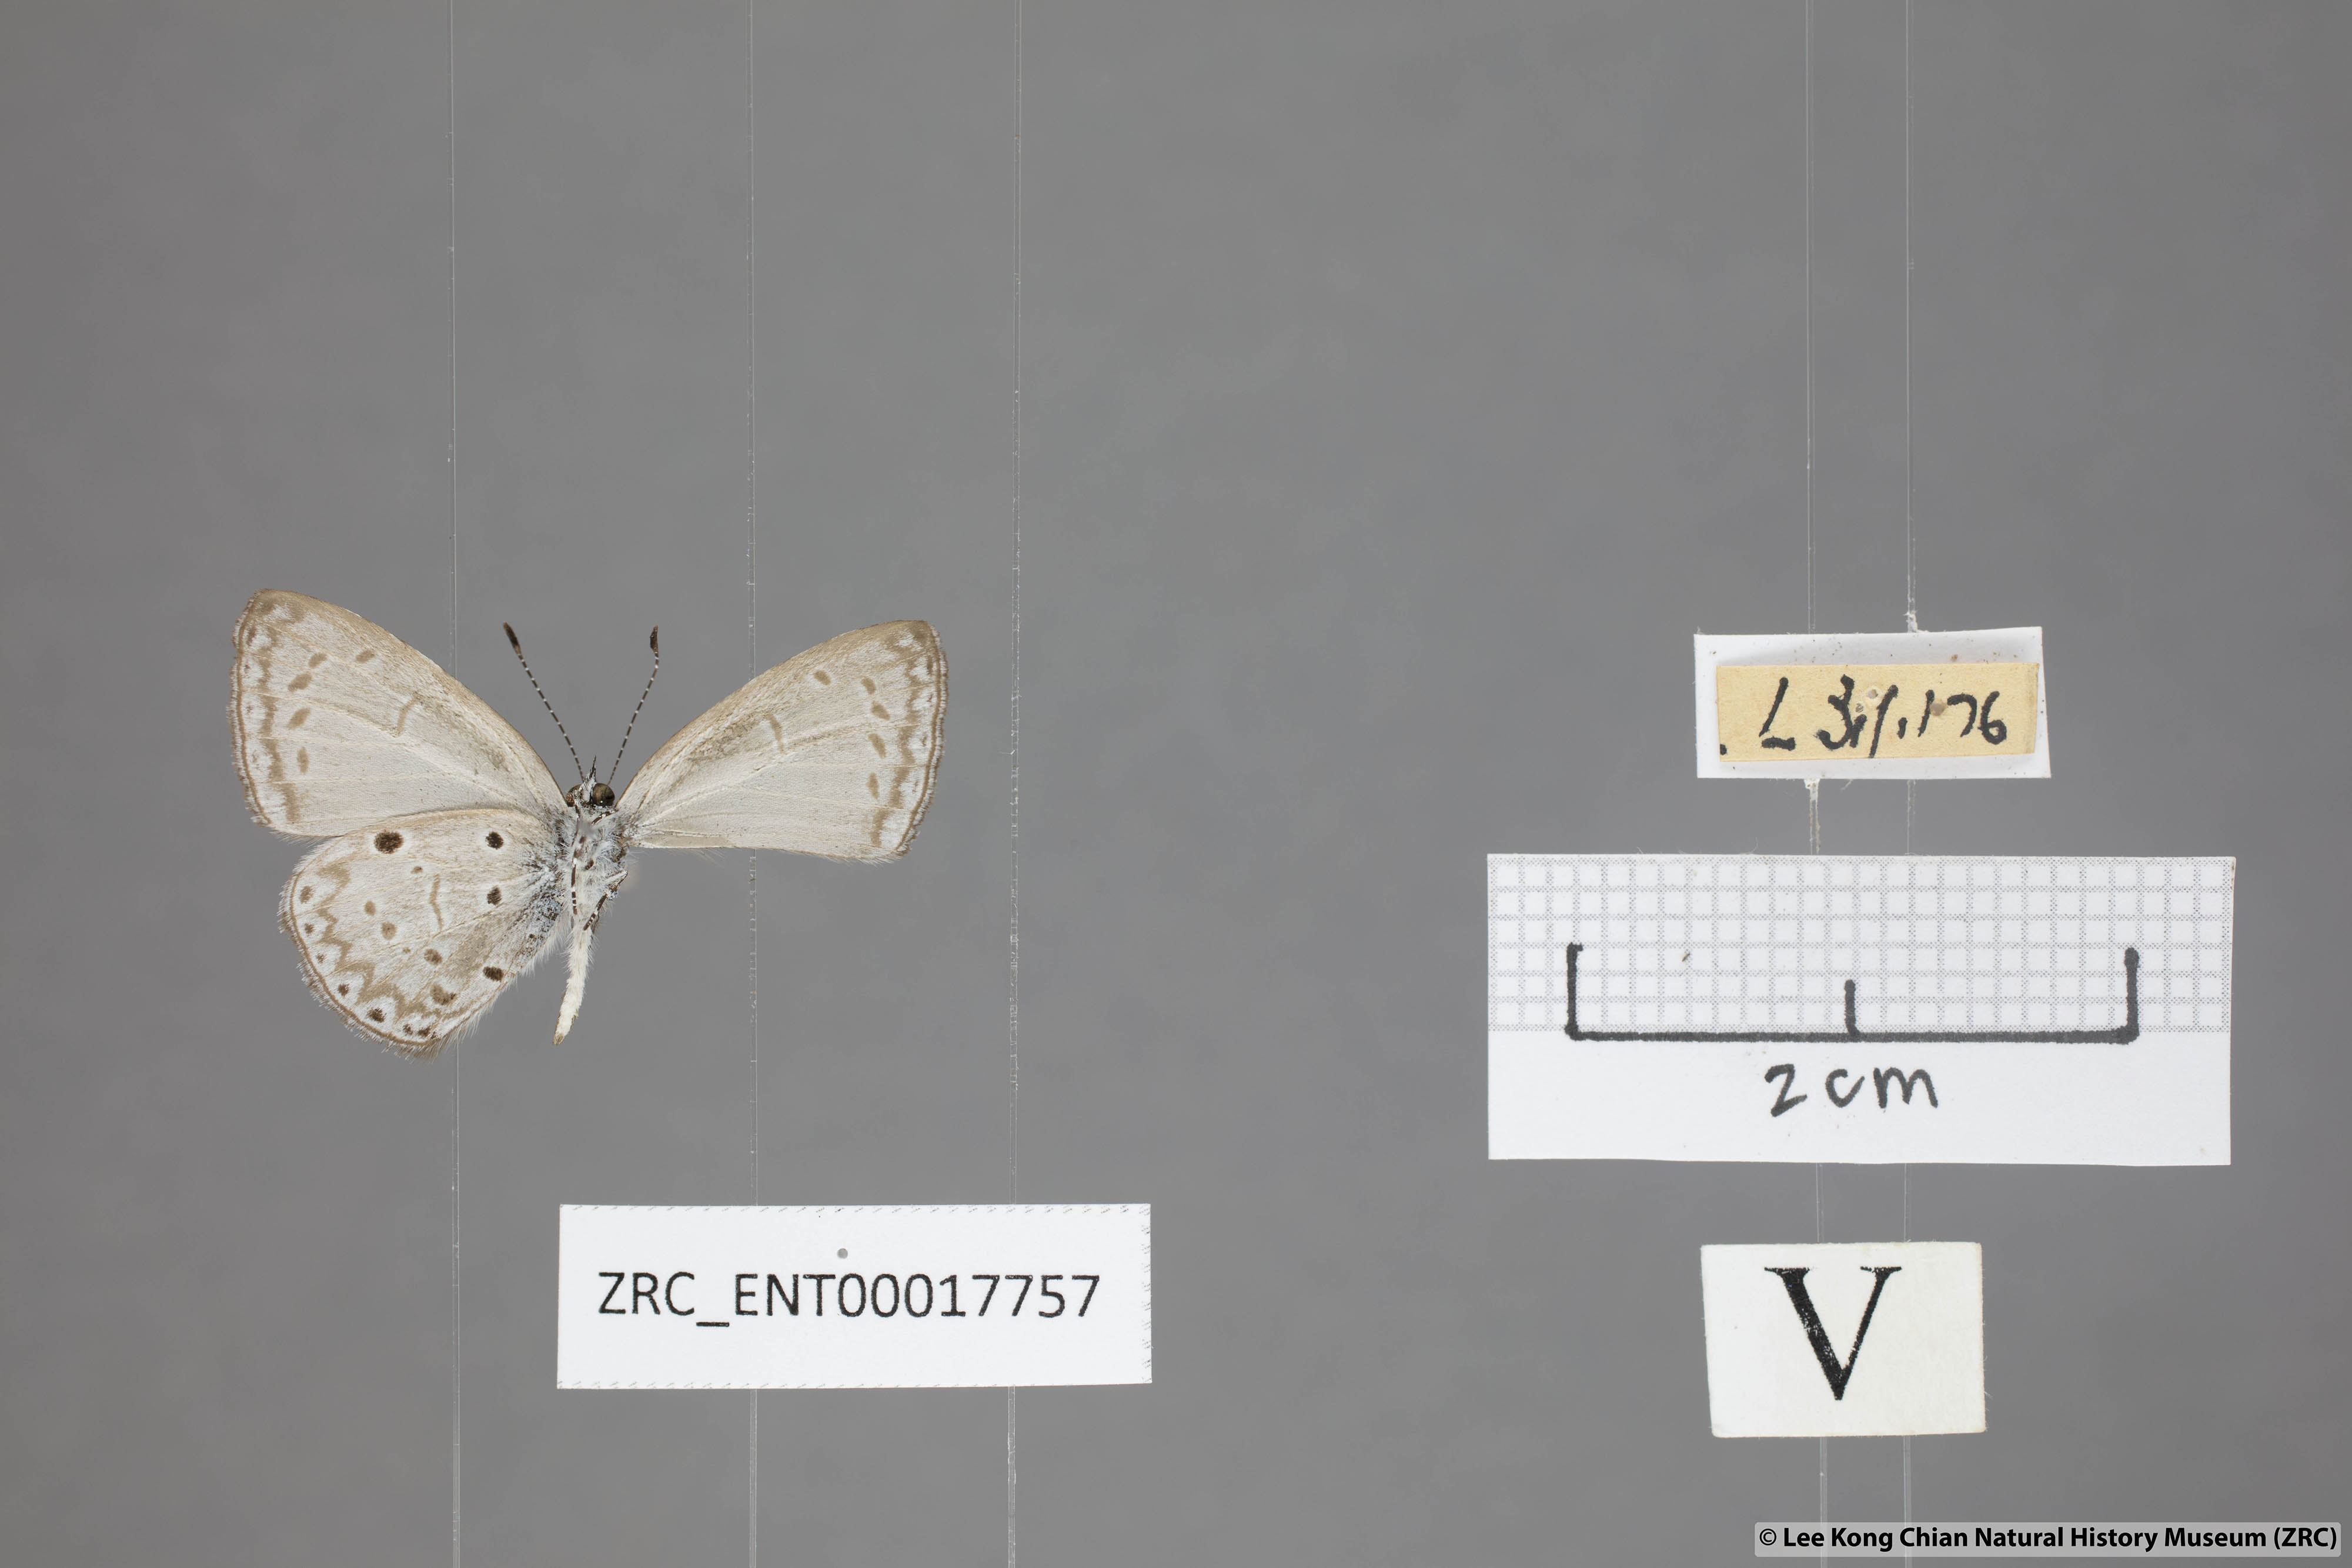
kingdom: Animalia
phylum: Arthropoda
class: Insecta
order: Lepidoptera
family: Lycaenidae
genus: Udara
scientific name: Udara
